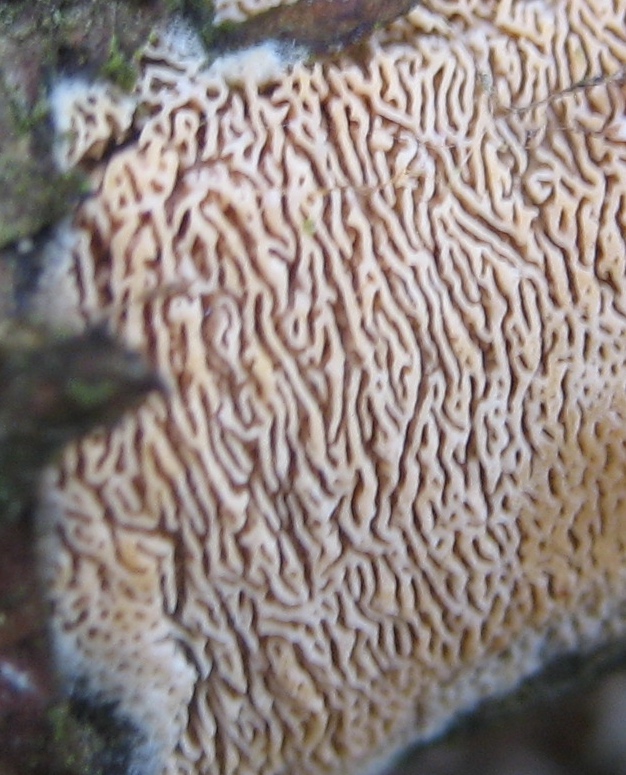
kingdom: Fungi
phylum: Basidiomycota
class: Agaricomycetes
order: Polyporales
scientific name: Polyporales
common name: poresvampordenen
